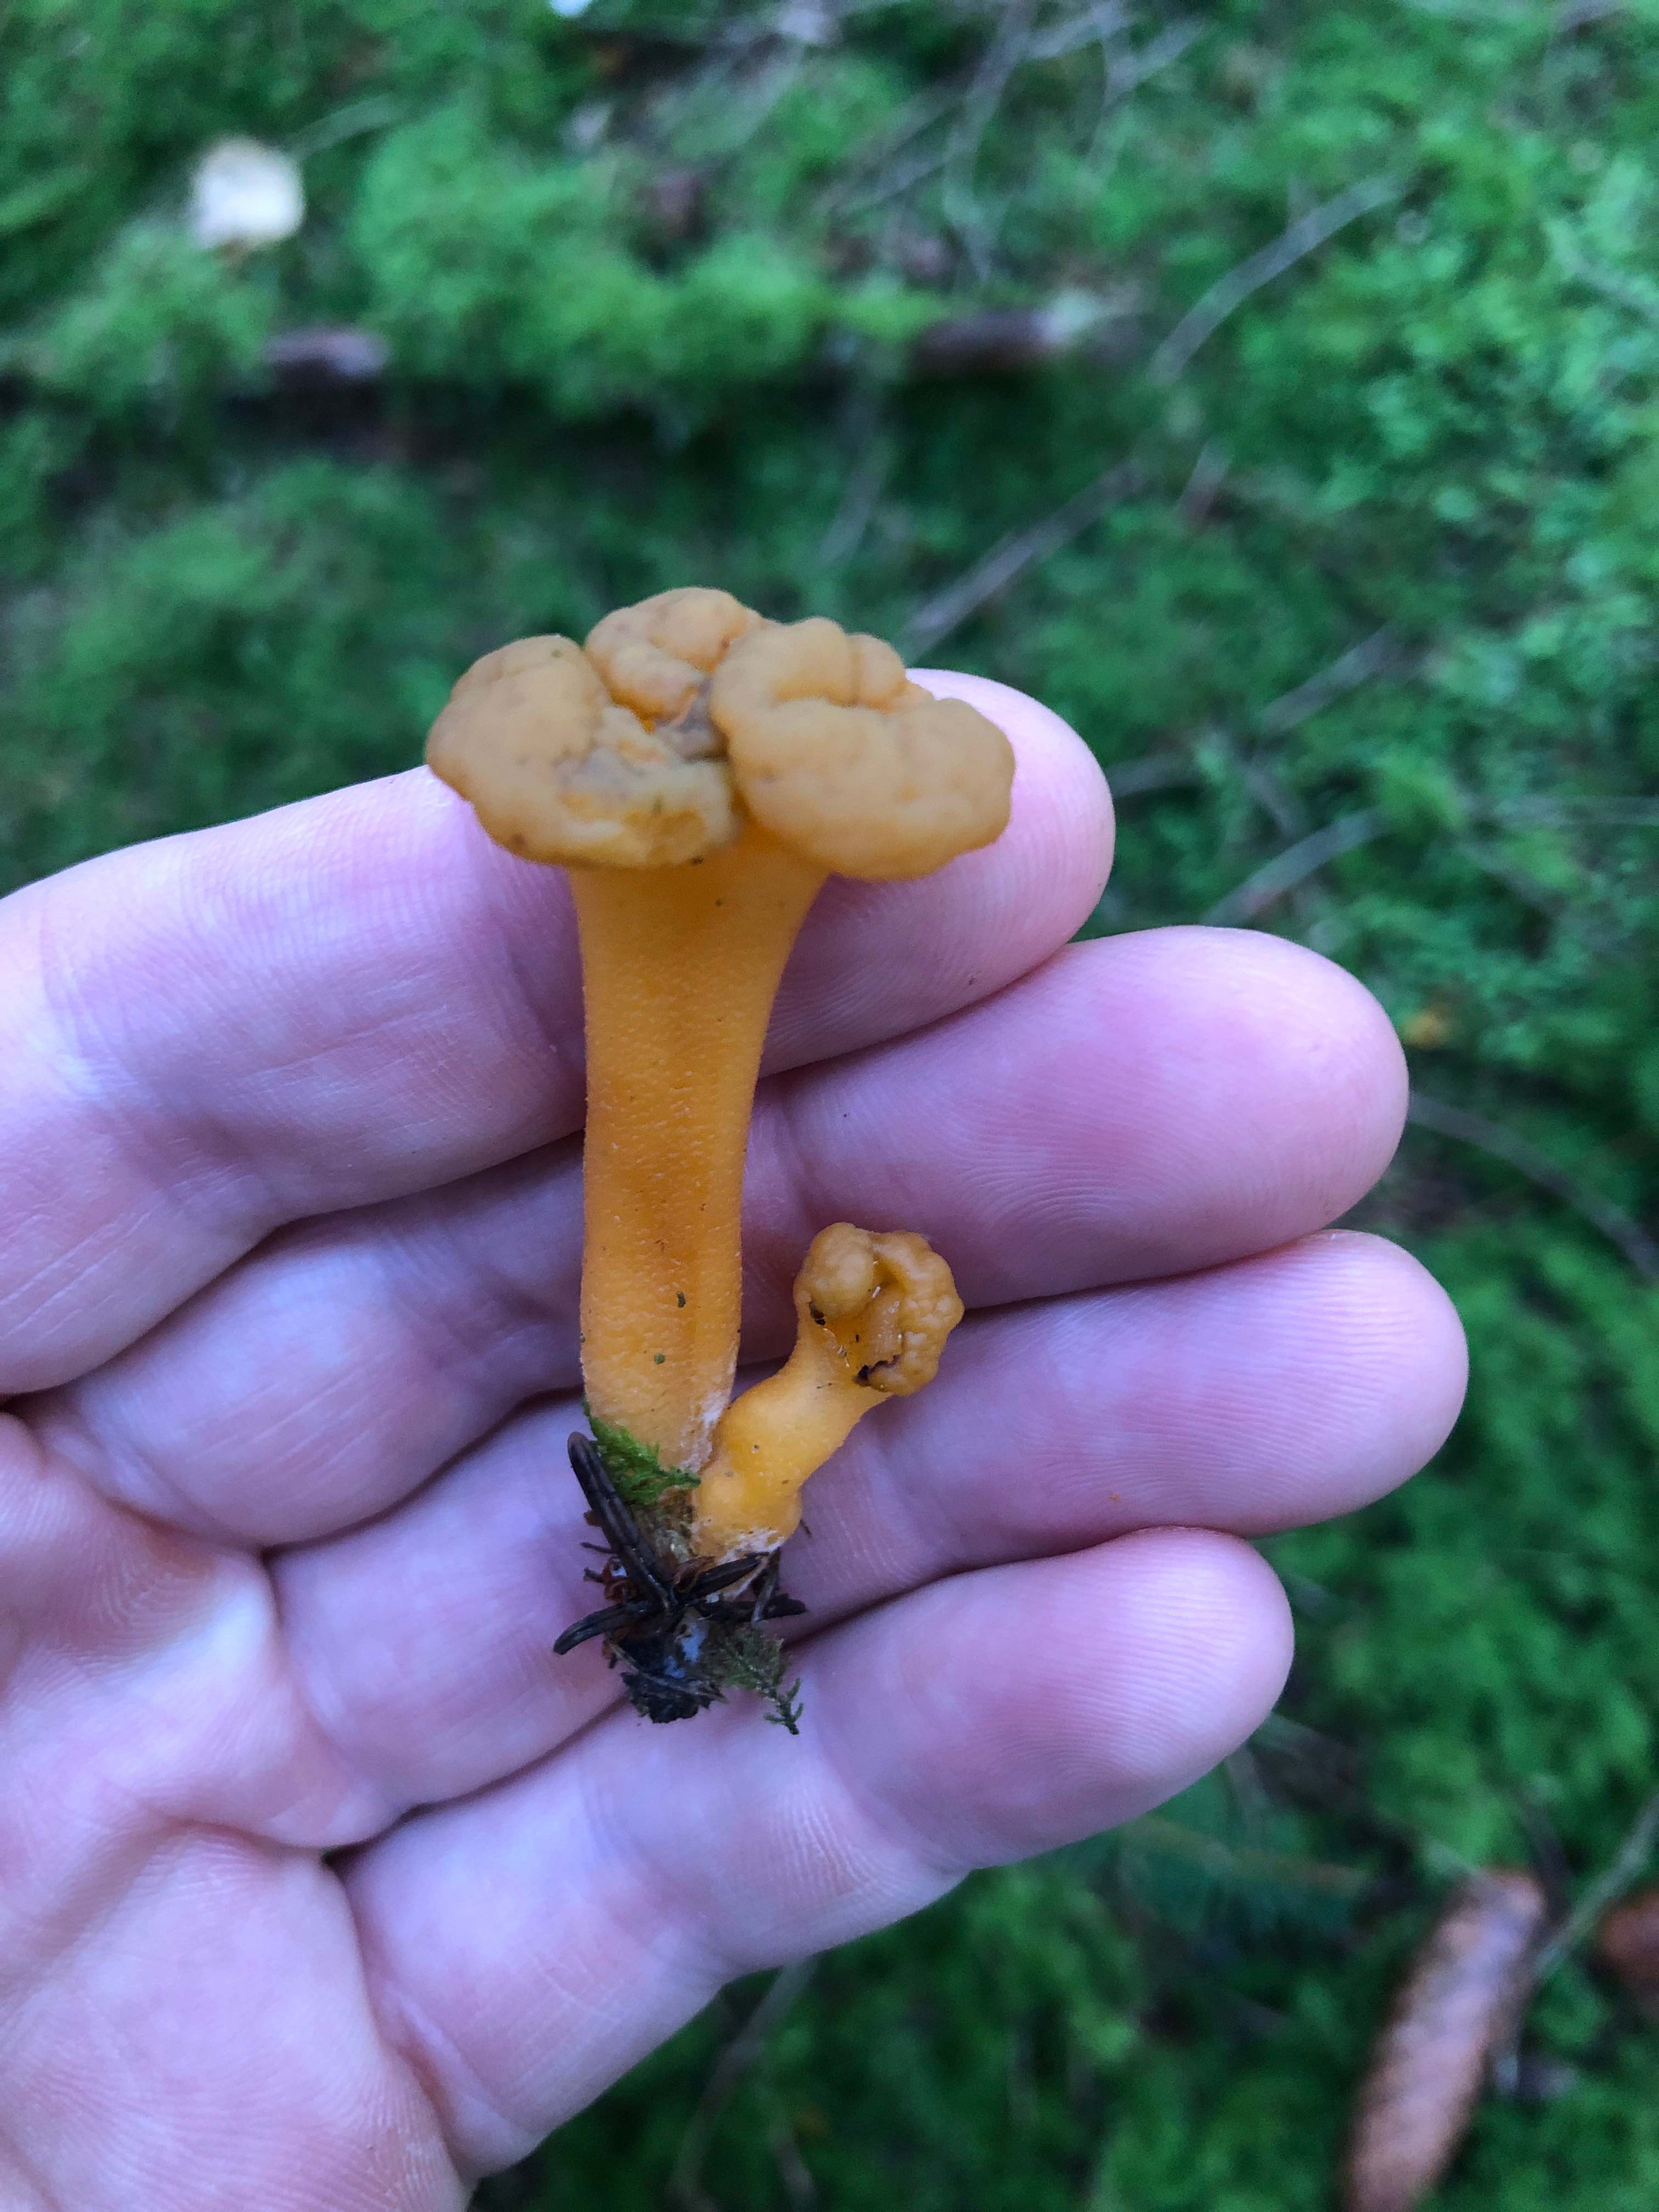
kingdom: Fungi
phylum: Ascomycota
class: Leotiomycetes
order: Leotiales
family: Leotiaceae
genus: Leotia
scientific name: Leotia lubrica
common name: ravsvamp
